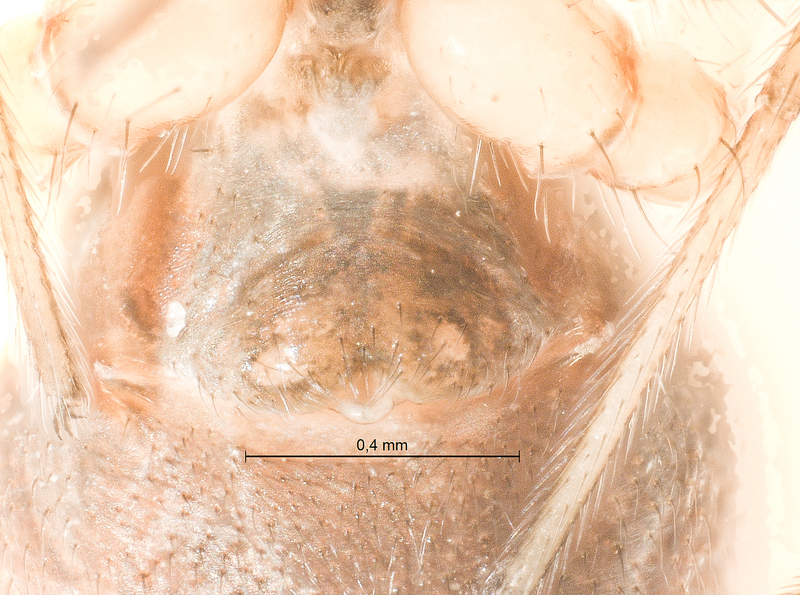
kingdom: Animalia
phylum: Arthropoda
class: Arachnida
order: Araneae
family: Linyphiidae
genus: Microlinyphia
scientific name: Microlinyphia pusilla
